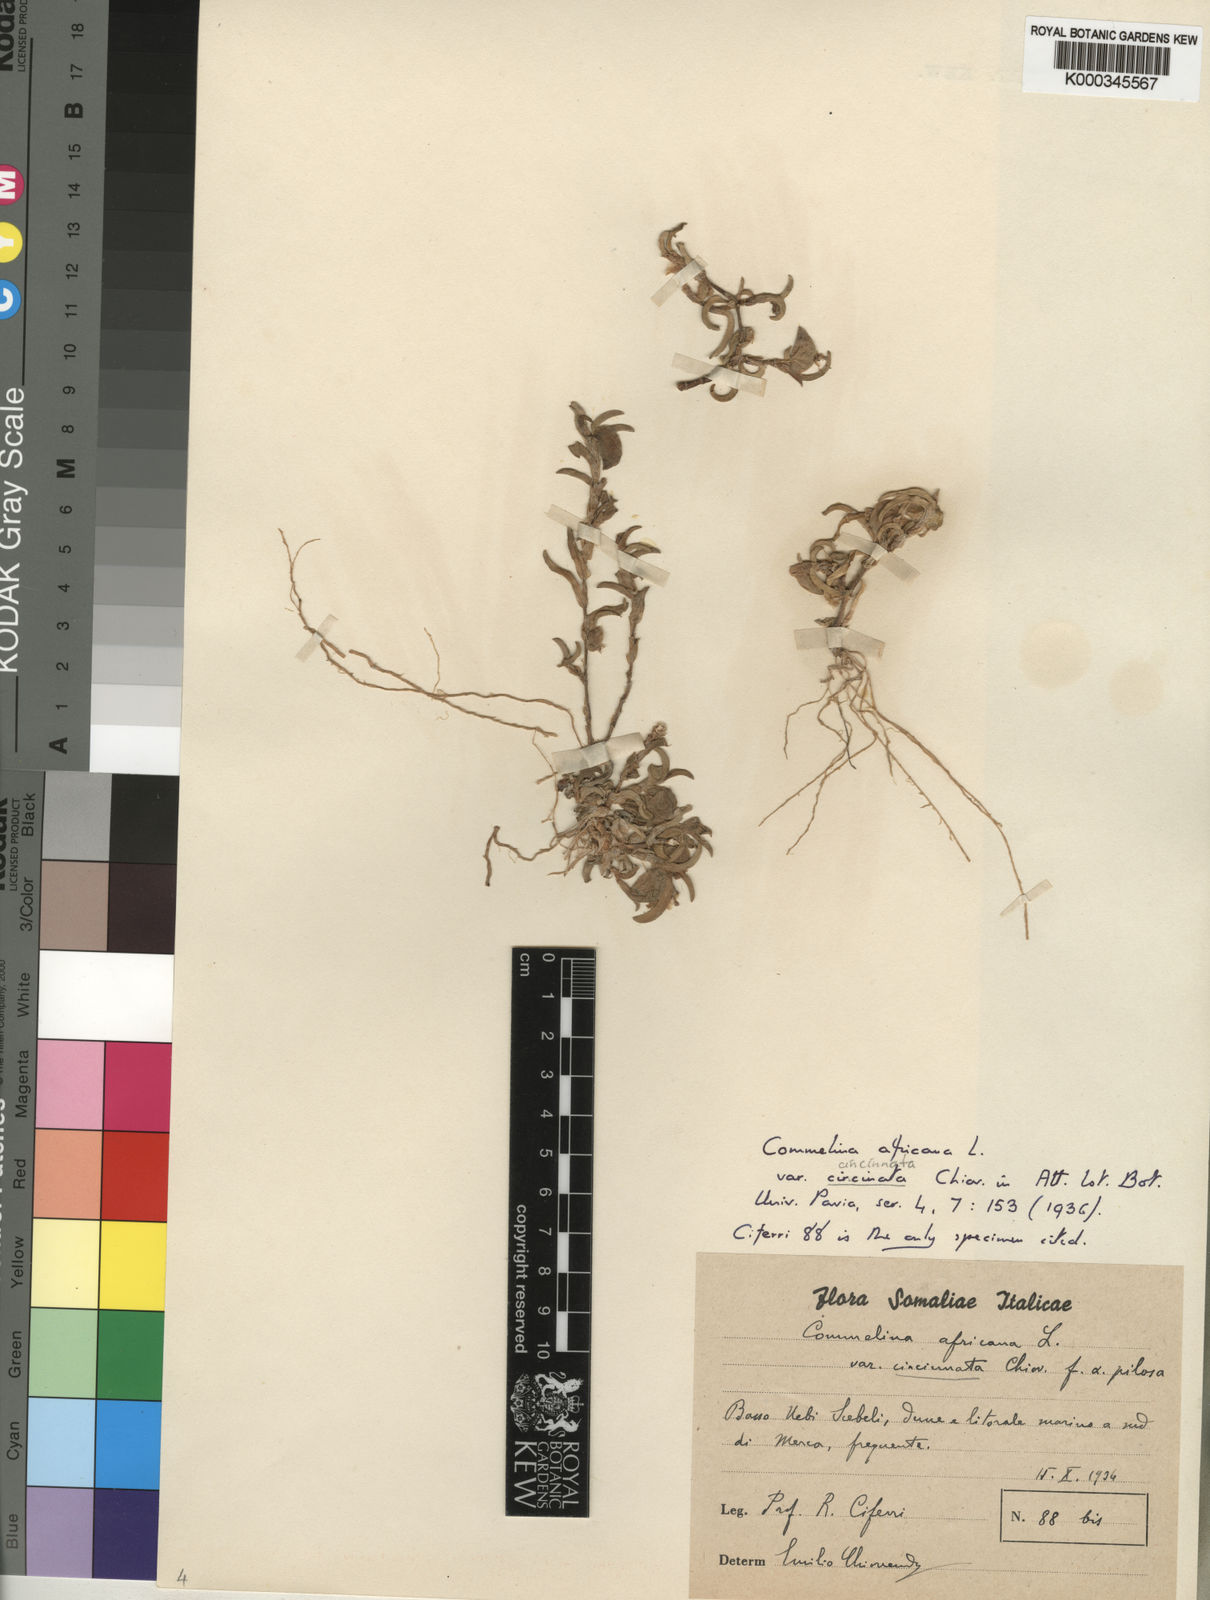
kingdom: Plantae
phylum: Tracheophyta
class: Liliopsida
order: Commelinales
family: Commelinaceae
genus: Commelina
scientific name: Commelina africana
